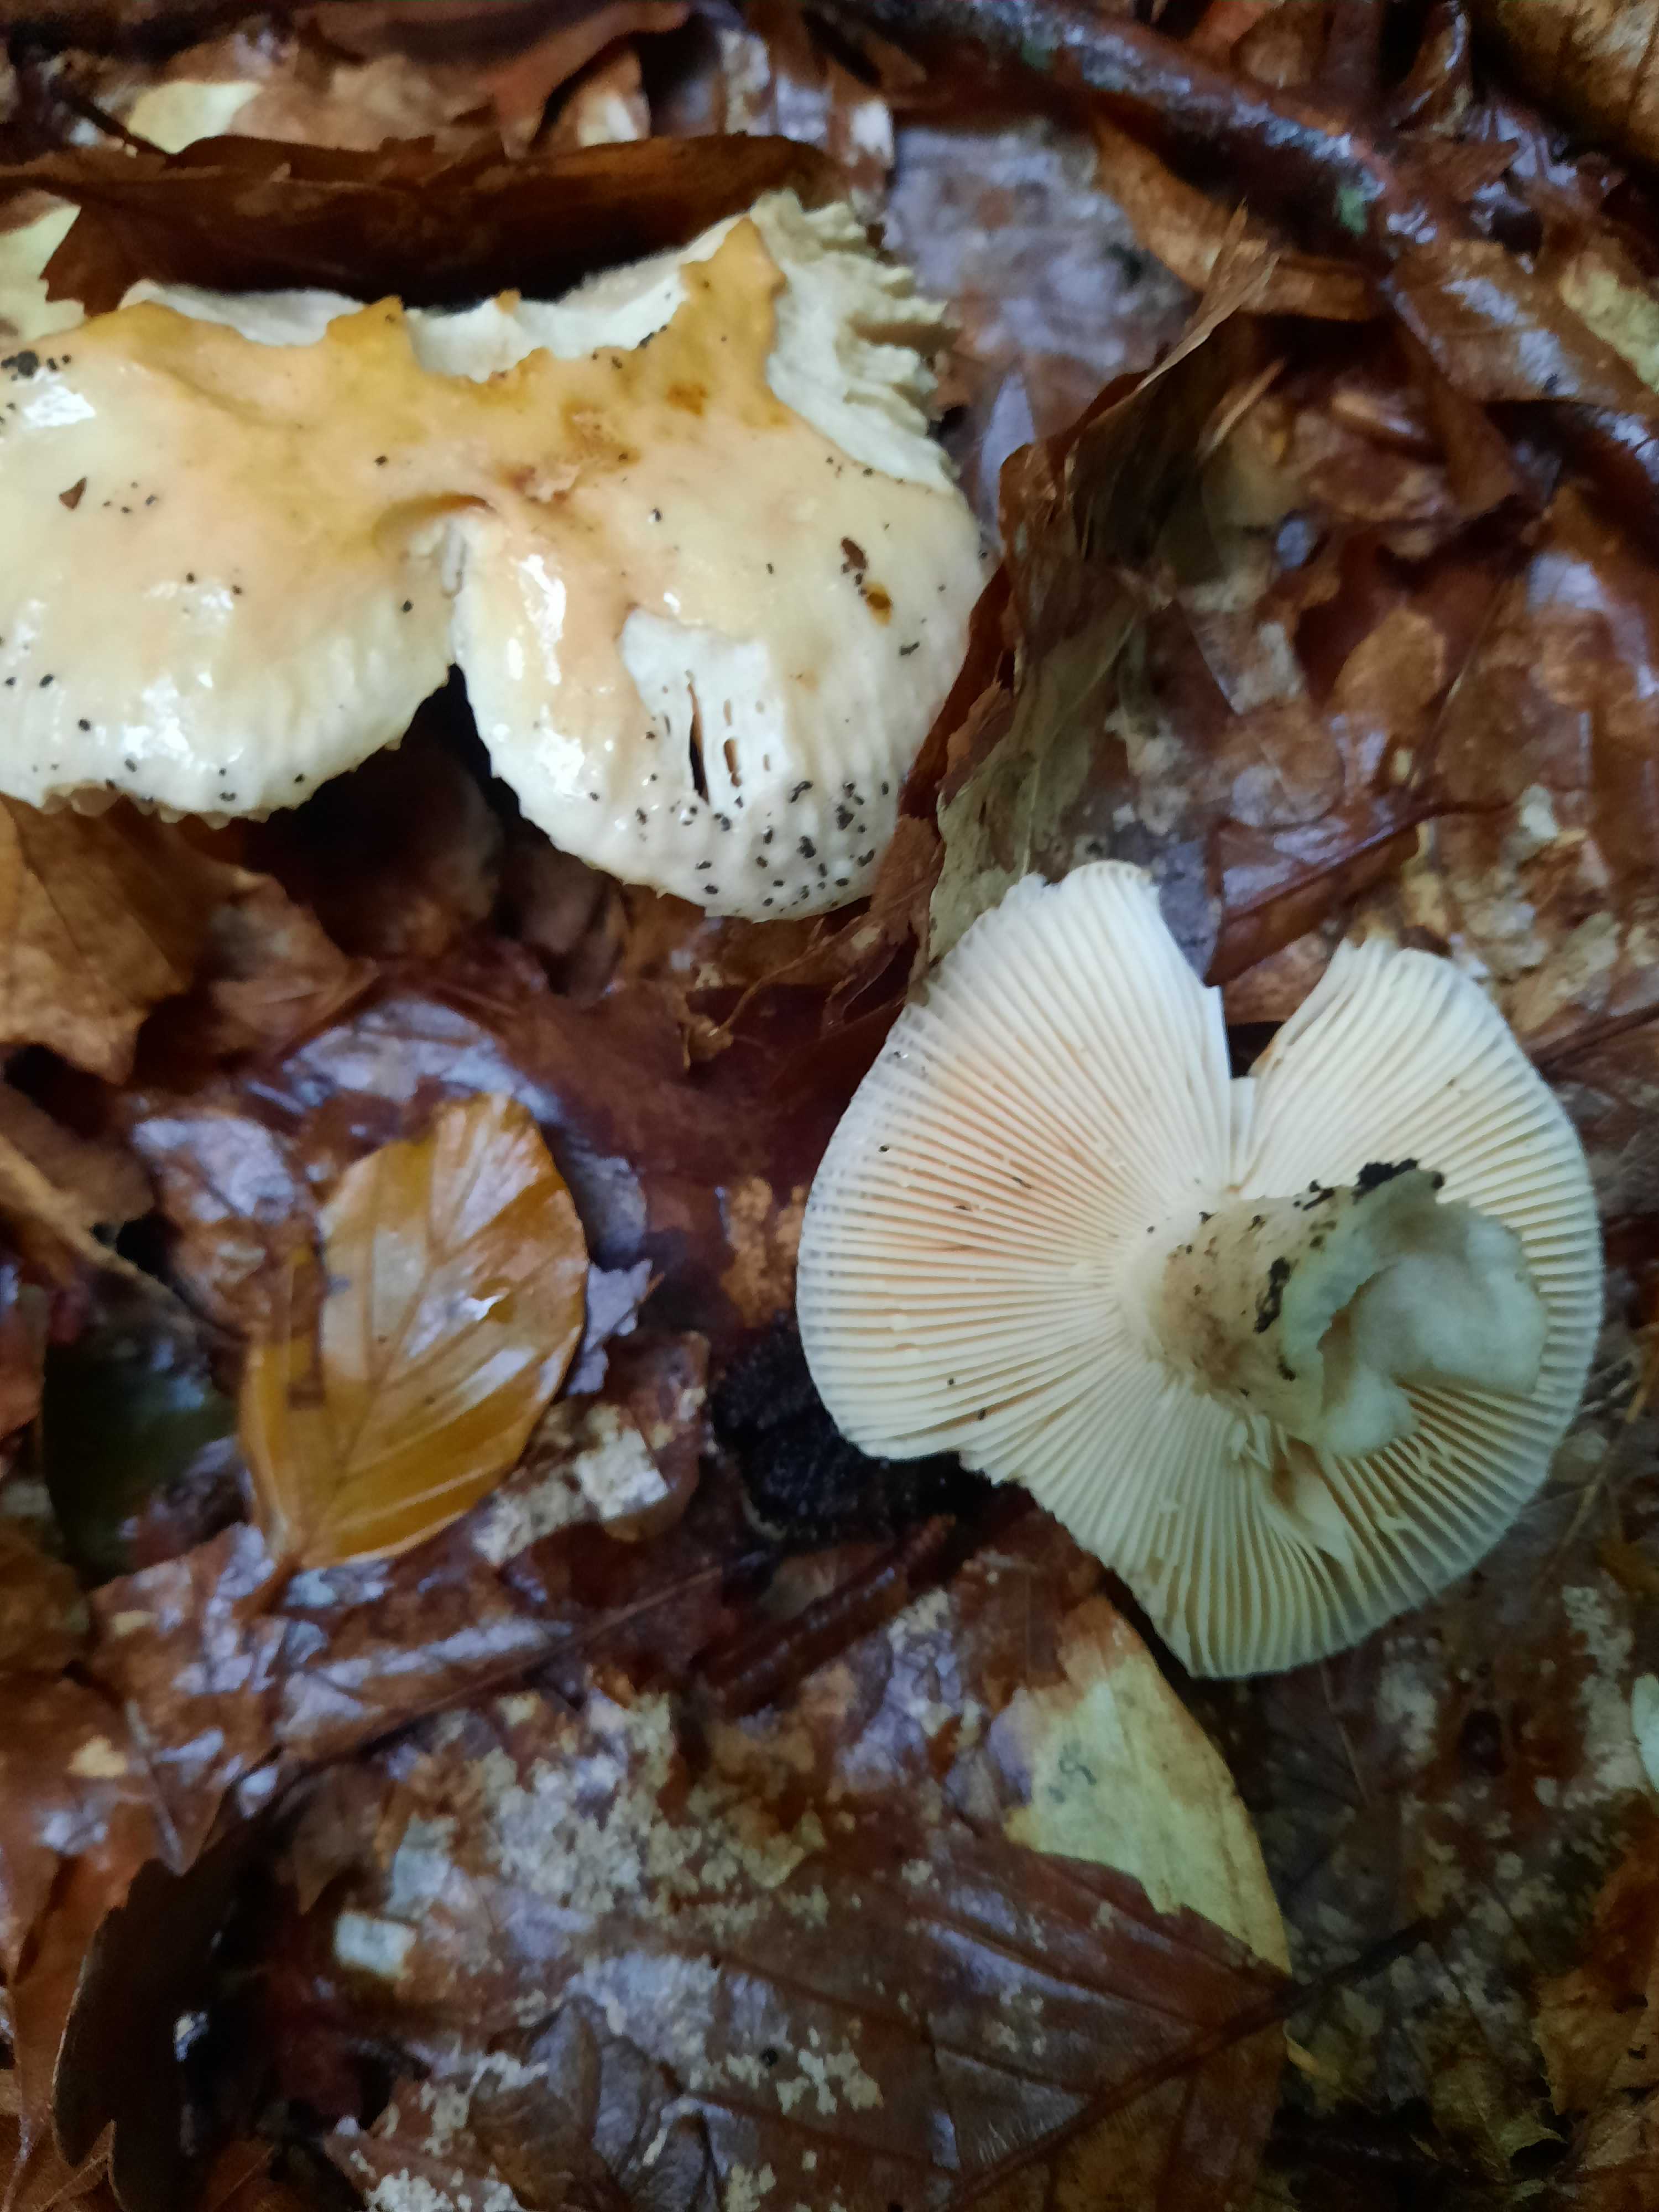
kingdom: Fungi
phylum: Basidiomycota
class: Agaricomycetes
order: Russulales
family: Russulaceae
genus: Russula
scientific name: Russula fellea
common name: galde-skørhat
